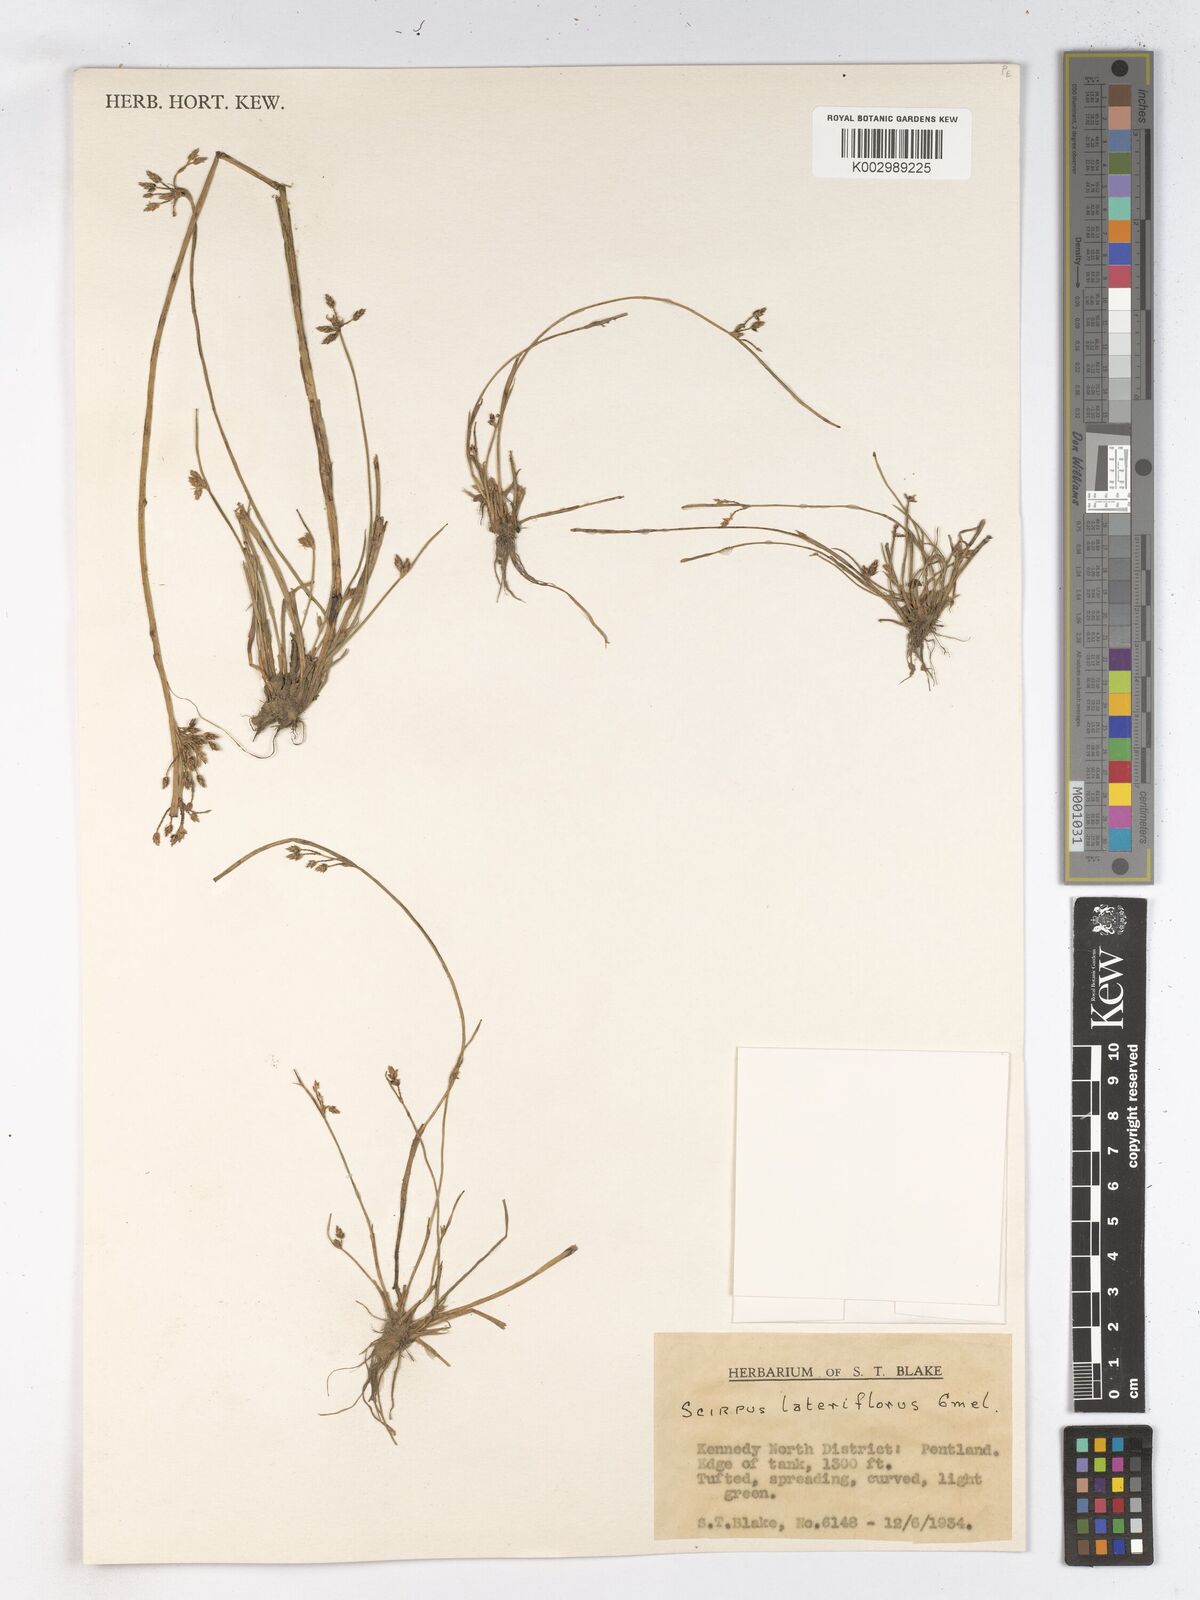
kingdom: Plantae
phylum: Tracheophyta
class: Liliopsida
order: Poales
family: Cyperaceae
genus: Schoenoplectiella
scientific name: Schoenoplectiella supina
